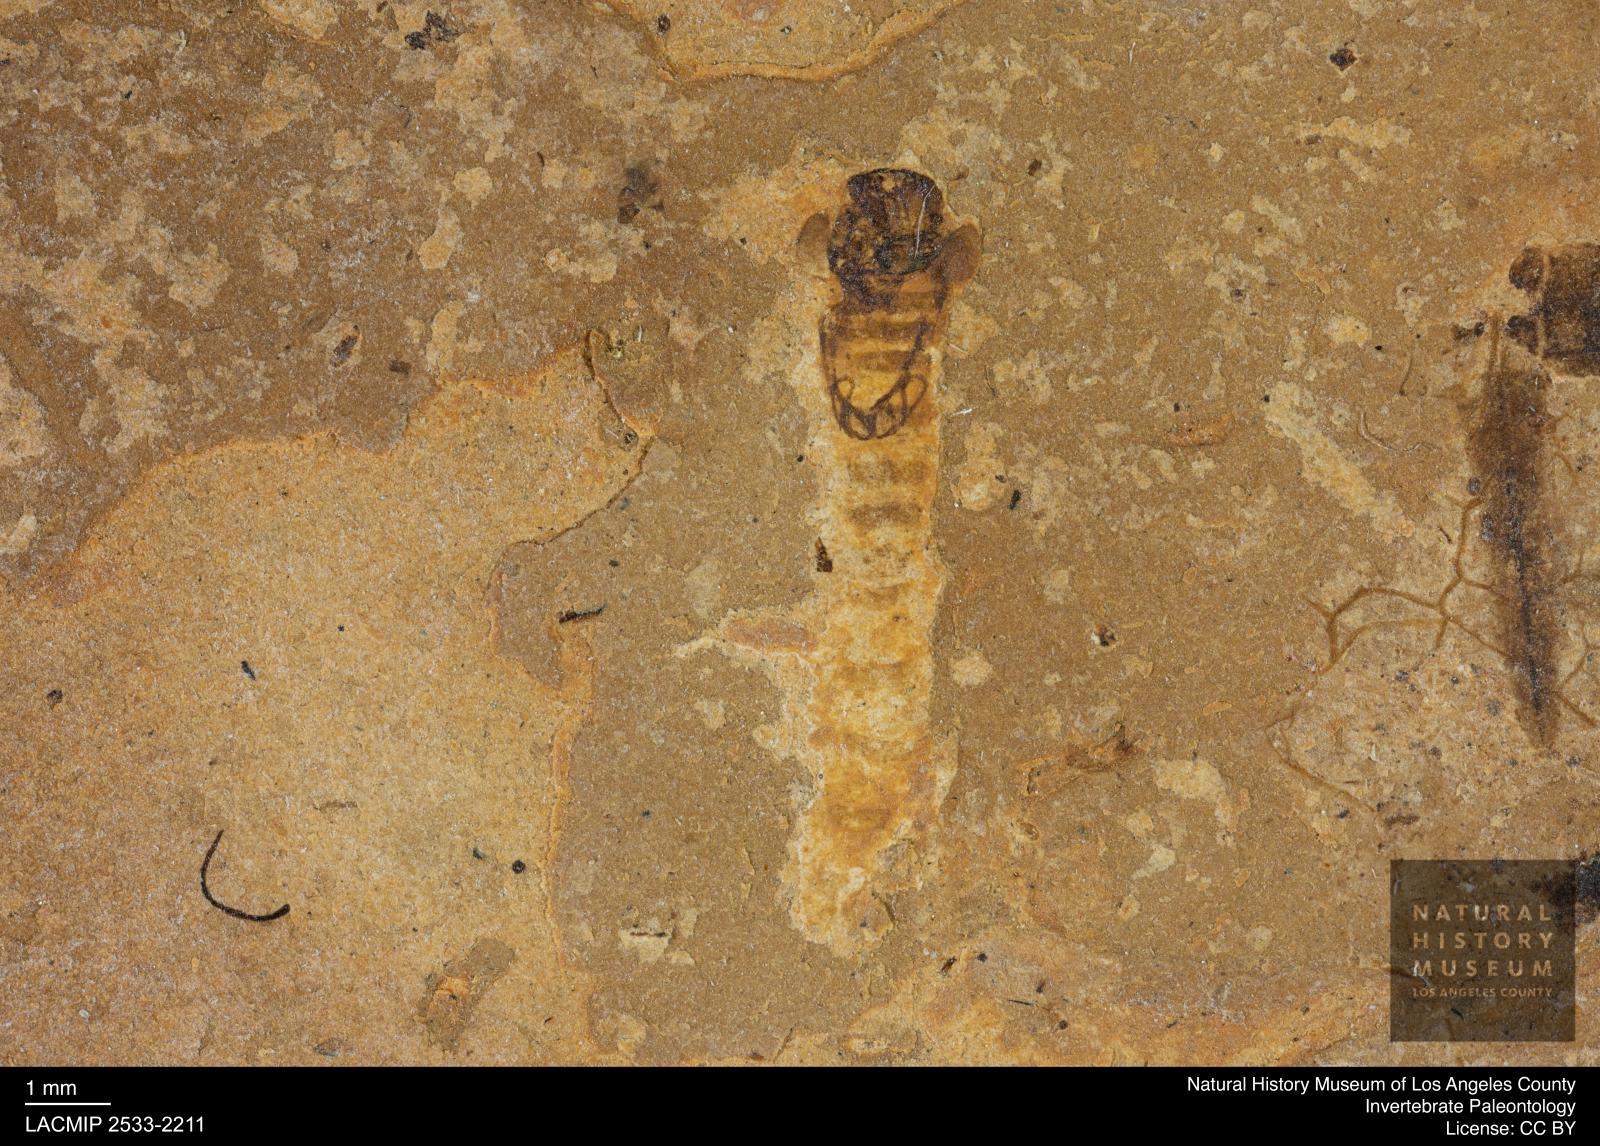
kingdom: Animalia
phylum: Arthropoda
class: Insecta
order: Diptera
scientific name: Diptera
